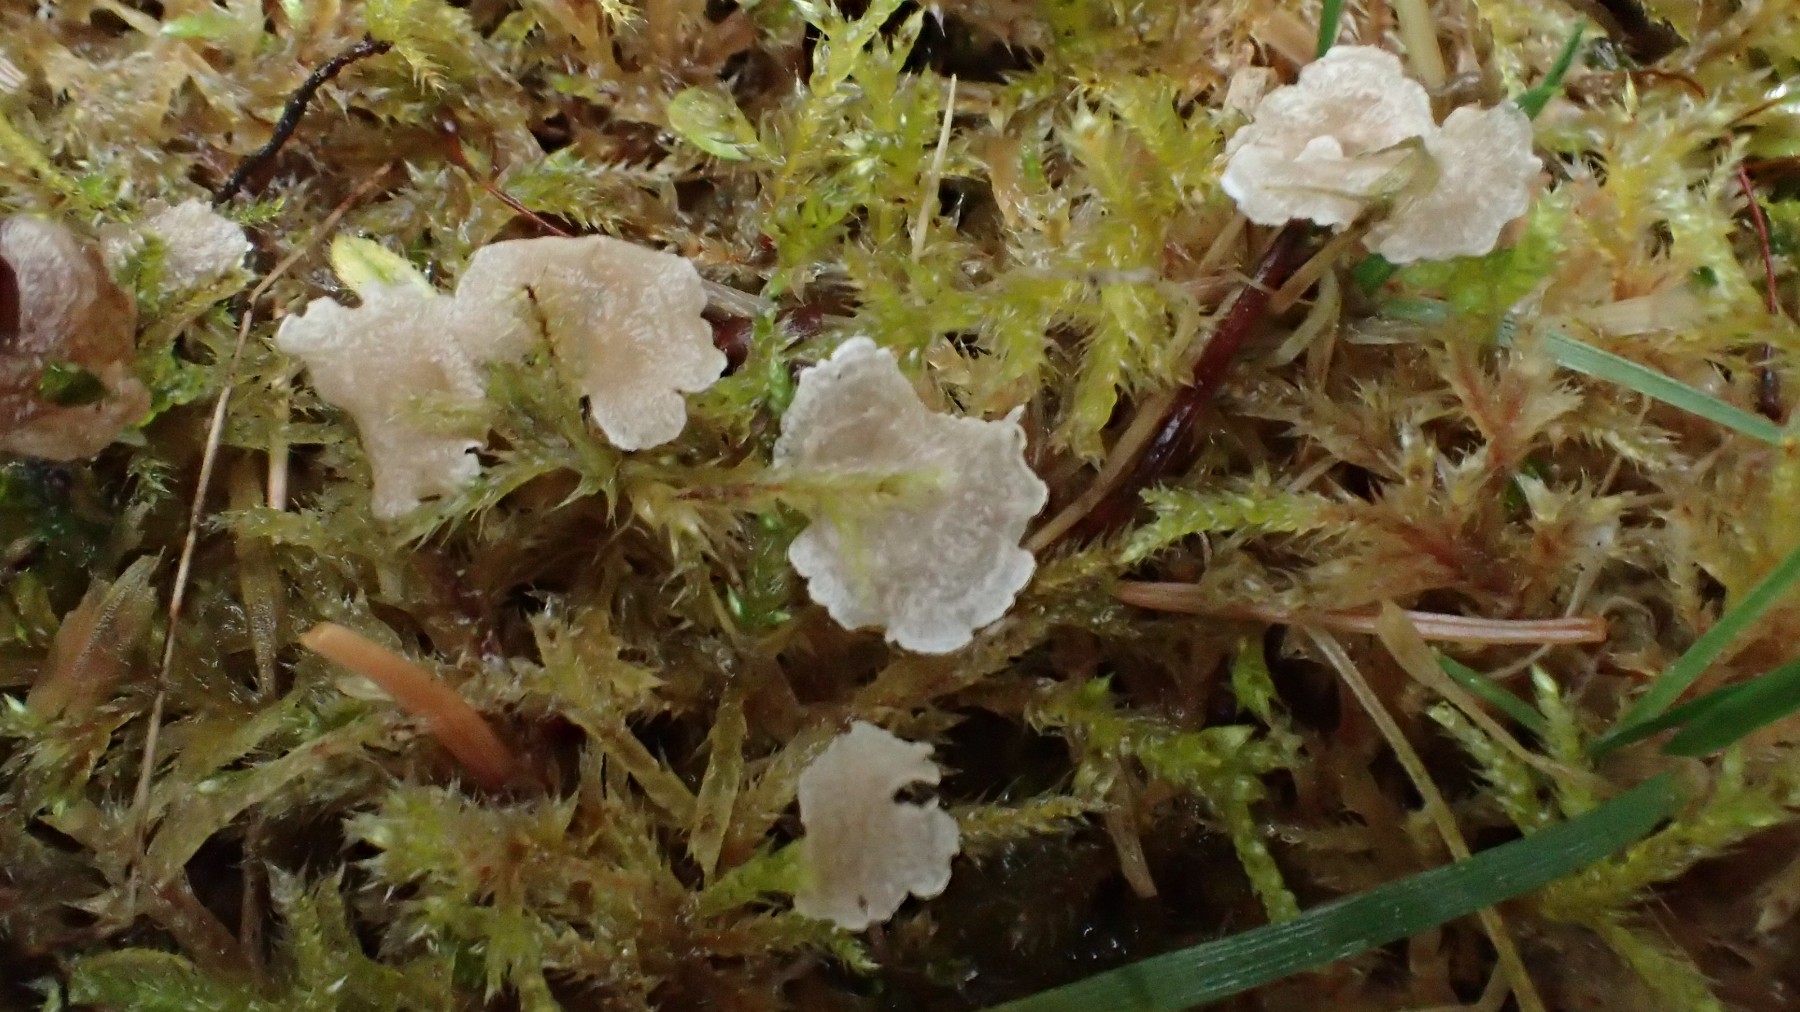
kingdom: Fungi
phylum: Basidiomycota
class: Agaricomycetes
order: Agaricales
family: Hygrophoraceae
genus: Arrhenia
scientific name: Arrhenia retiruga
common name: lille fontænehat
